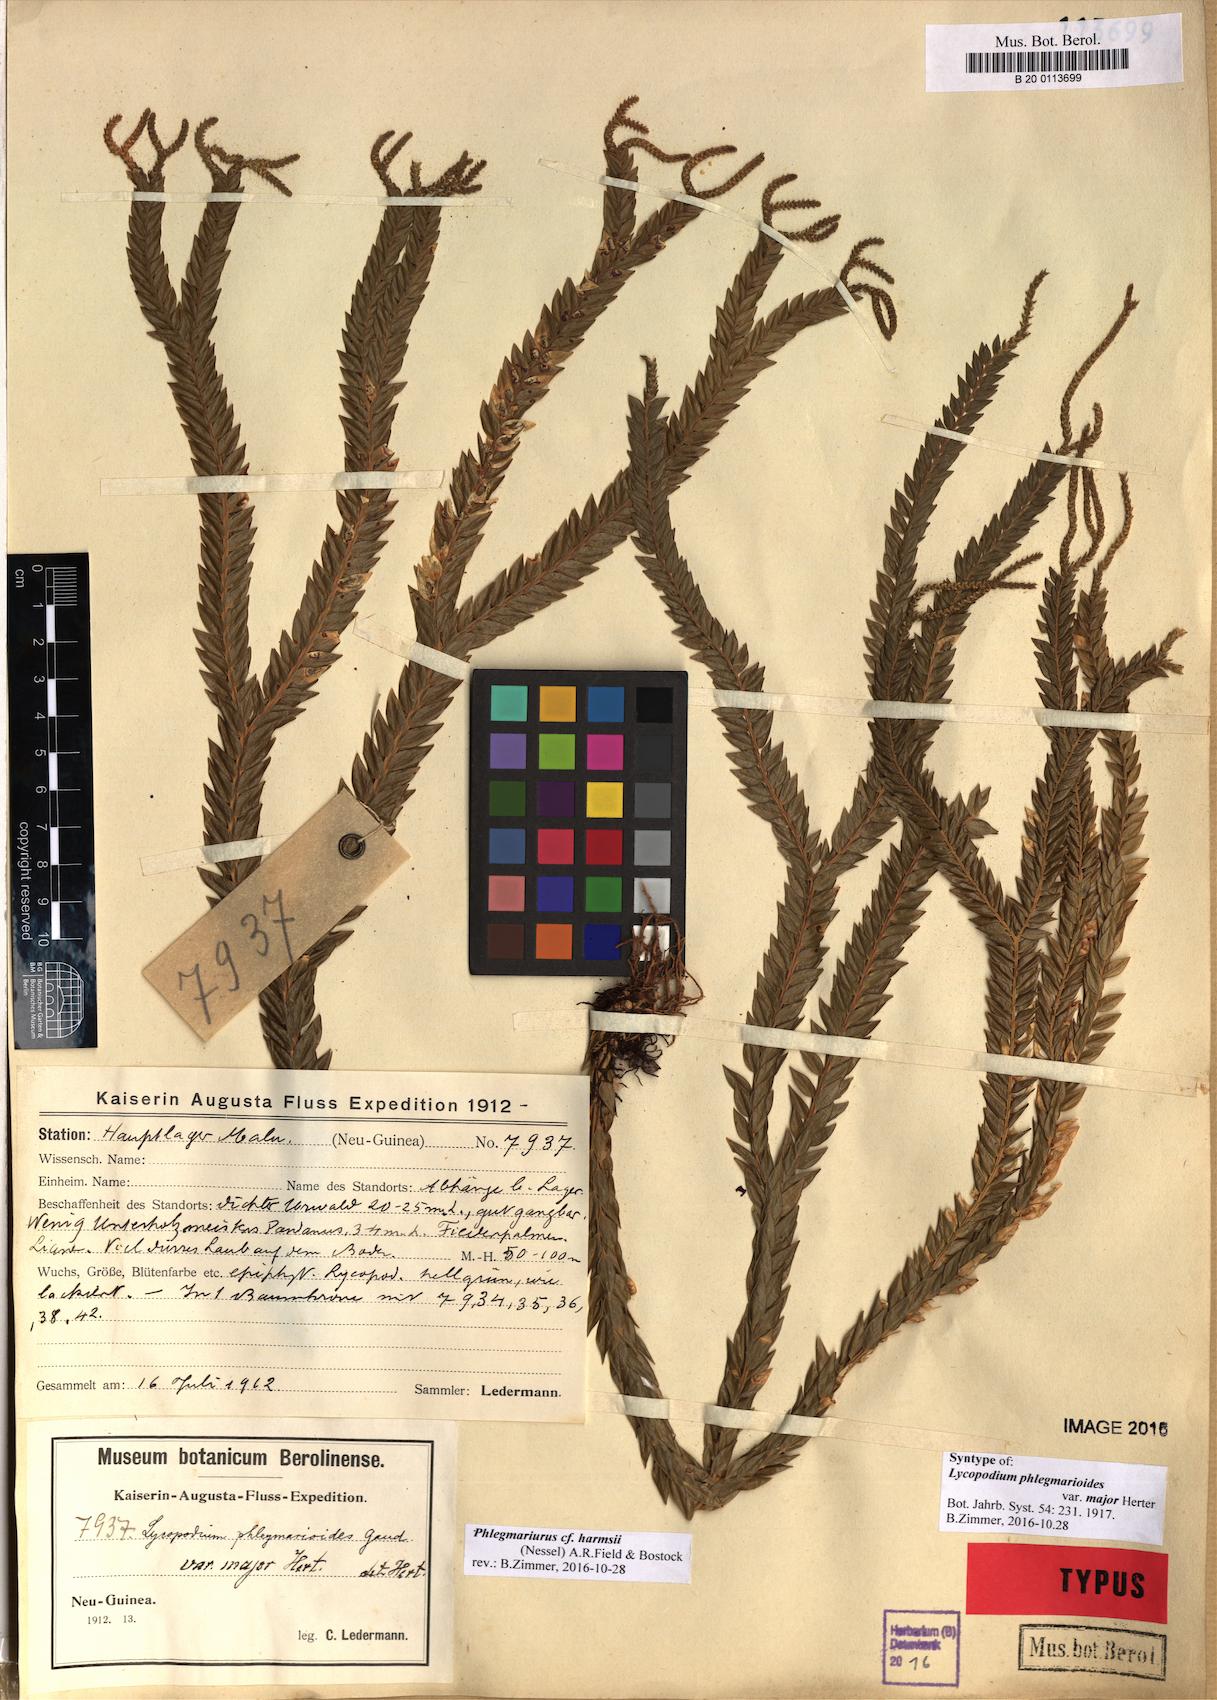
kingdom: Plantae
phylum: Tracheophyta
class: Lycopodiopsida
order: Lycopodiales
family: Lycopodiaceae
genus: Phlegmariurus
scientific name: Phlegmariurus harmsii
